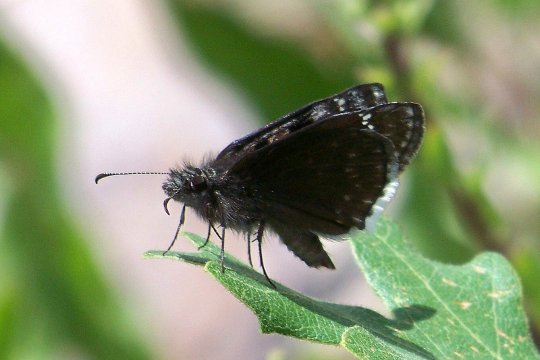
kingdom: Animalia
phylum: Arthropoda
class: Insecta
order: Lepidoptera
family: Hesperiidae
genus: Erynnis
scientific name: Erynnis pacuvius
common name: Pacuvius Duskywing
